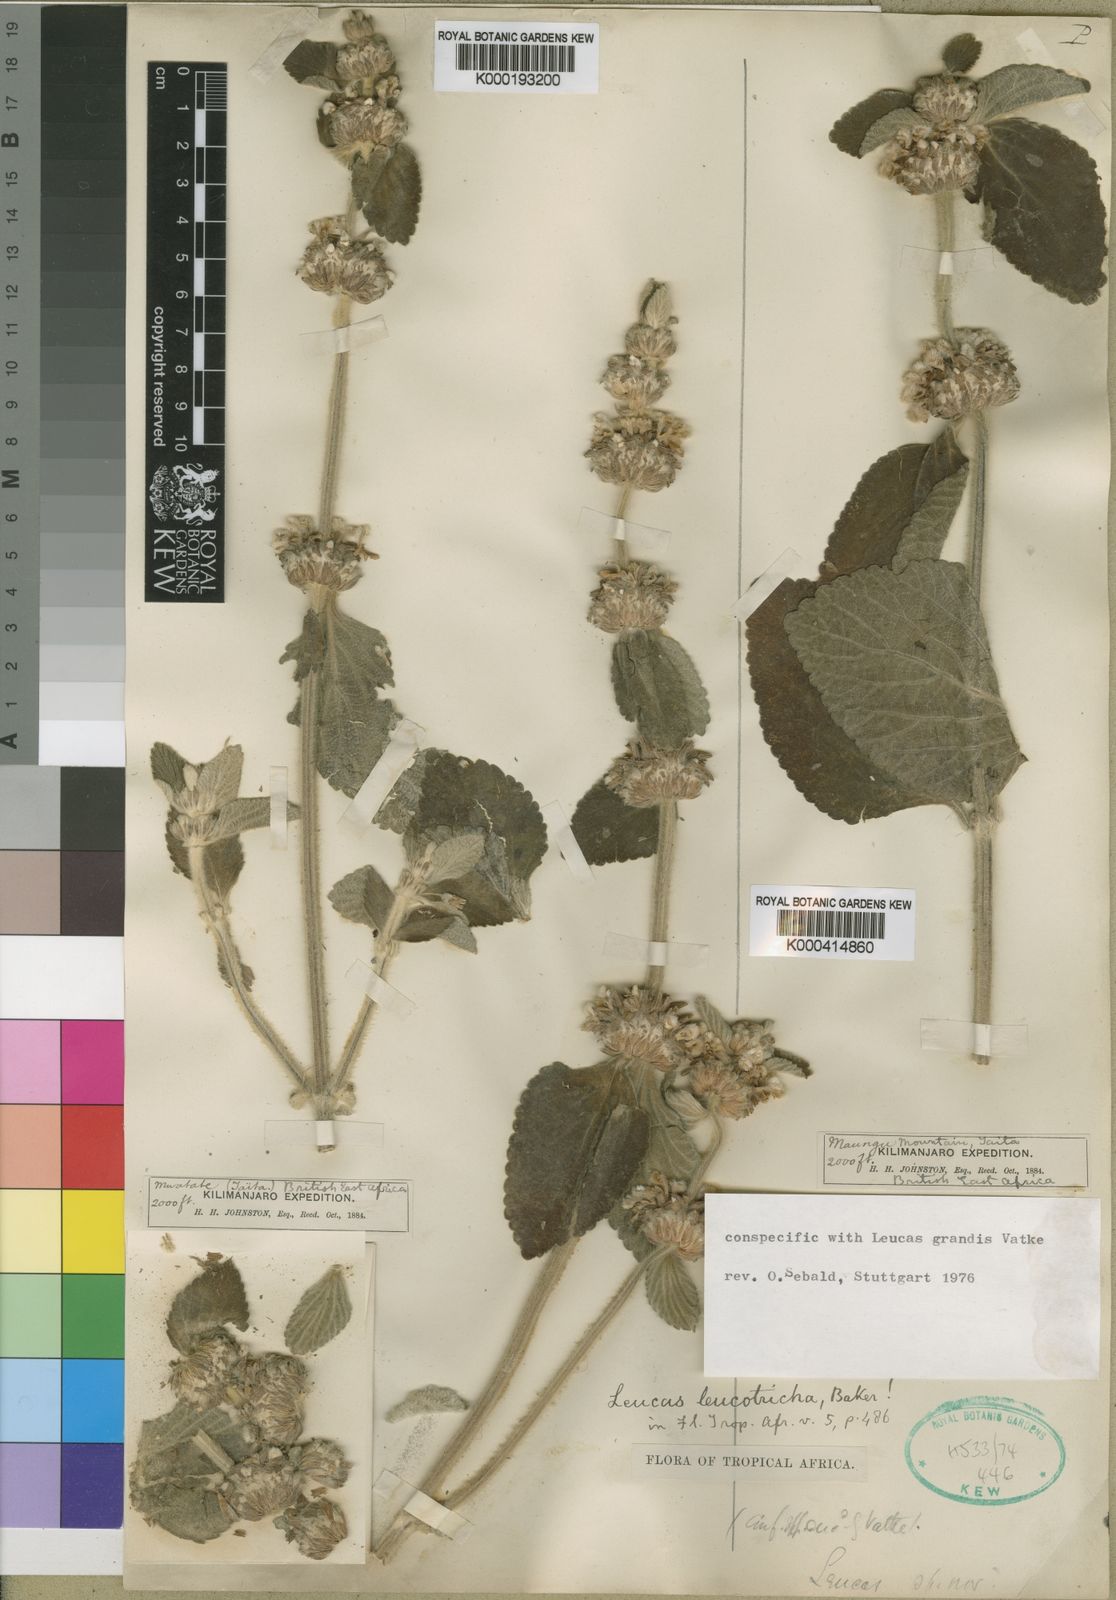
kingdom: Plantae
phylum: Tracheophyta
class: Magnoliopsida
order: Lamiales
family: Lamiaceae
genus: Leucas
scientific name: Leucas grandis
